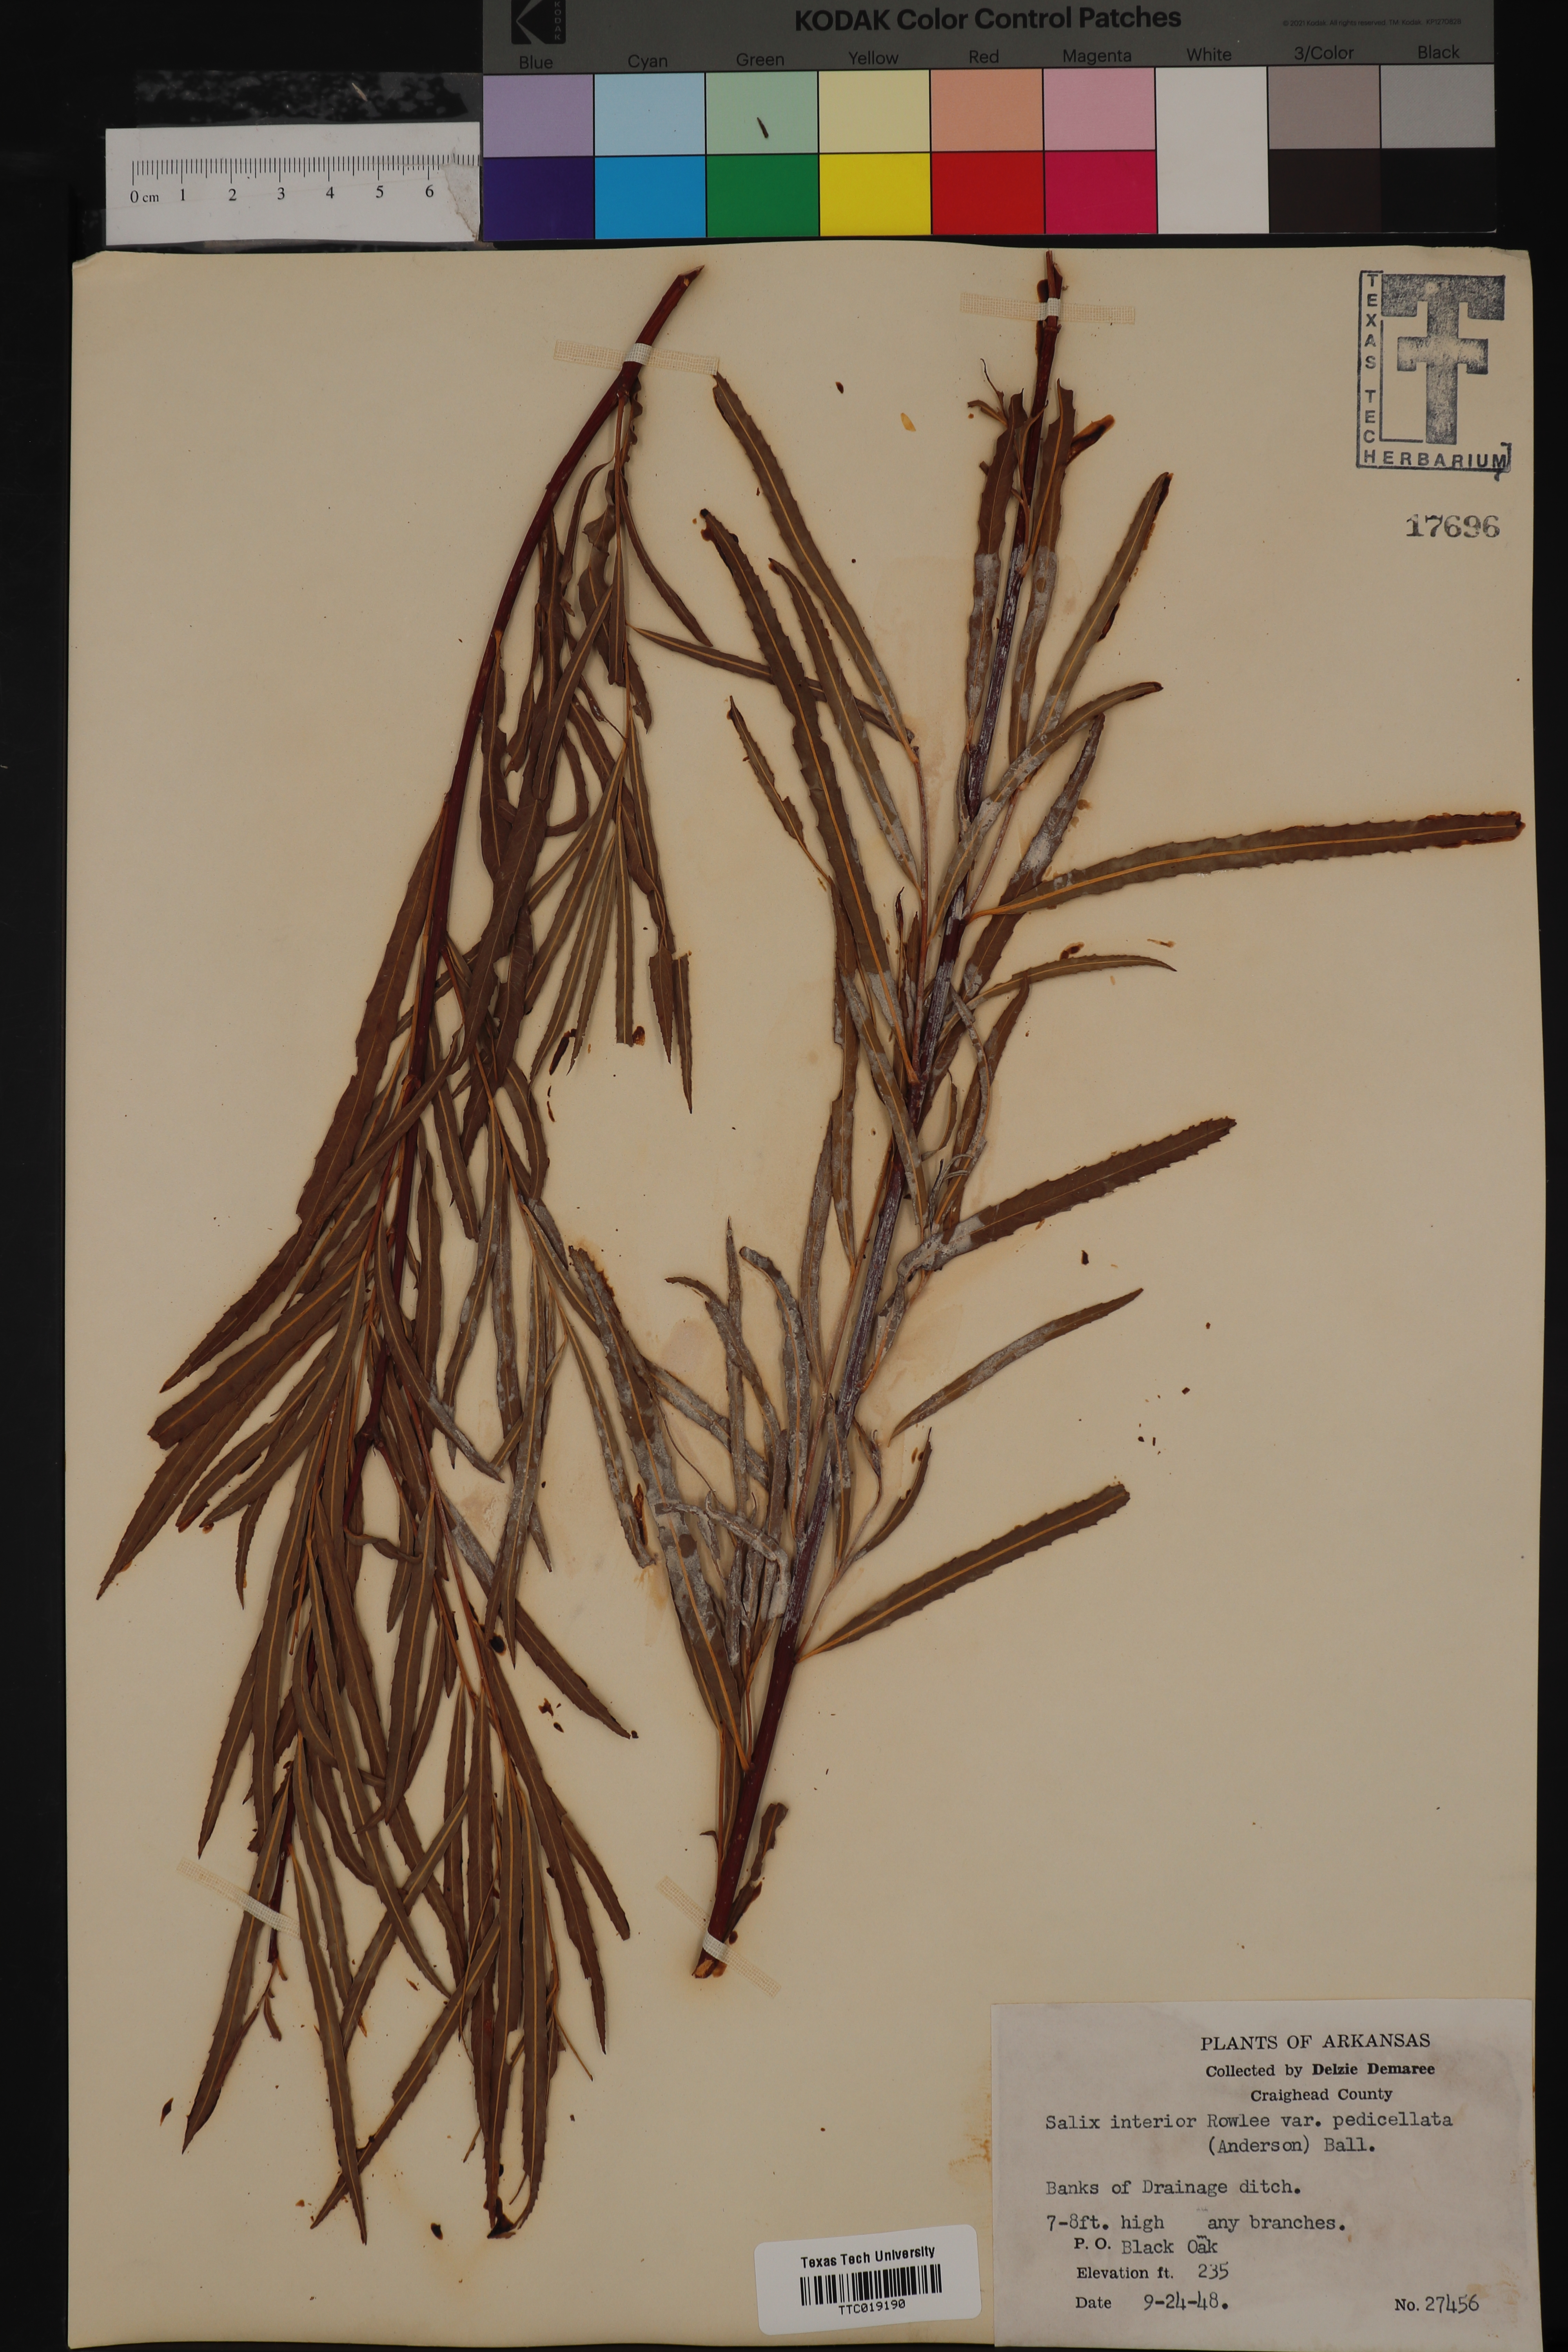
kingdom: Plantae
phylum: Tracheophyta
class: Magnoliopsida
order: Malpighiales
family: Salicaceae
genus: Salix
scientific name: Salix interior
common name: Sandbar willow
